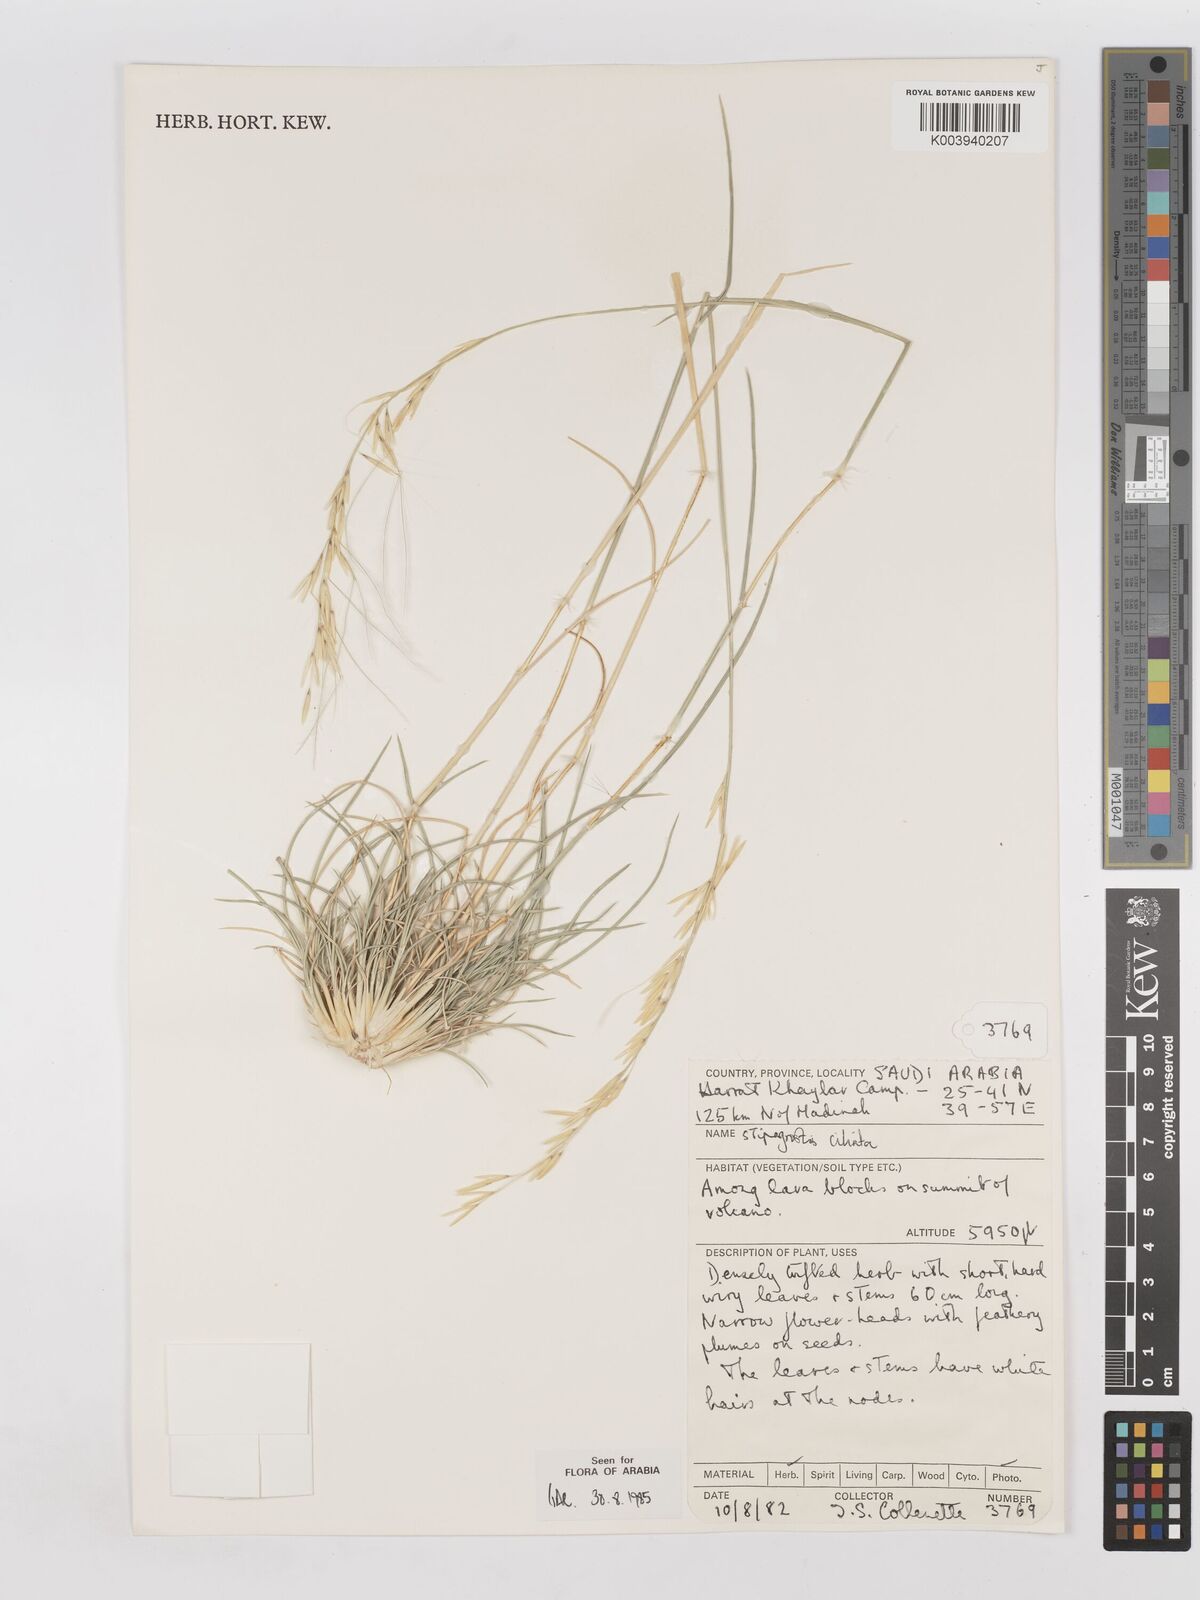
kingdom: Plantae
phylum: Tracheophyta
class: Liliopsida
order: Poales
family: Poaceae
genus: Stipagrostis
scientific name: Stipagrostis ciliata
